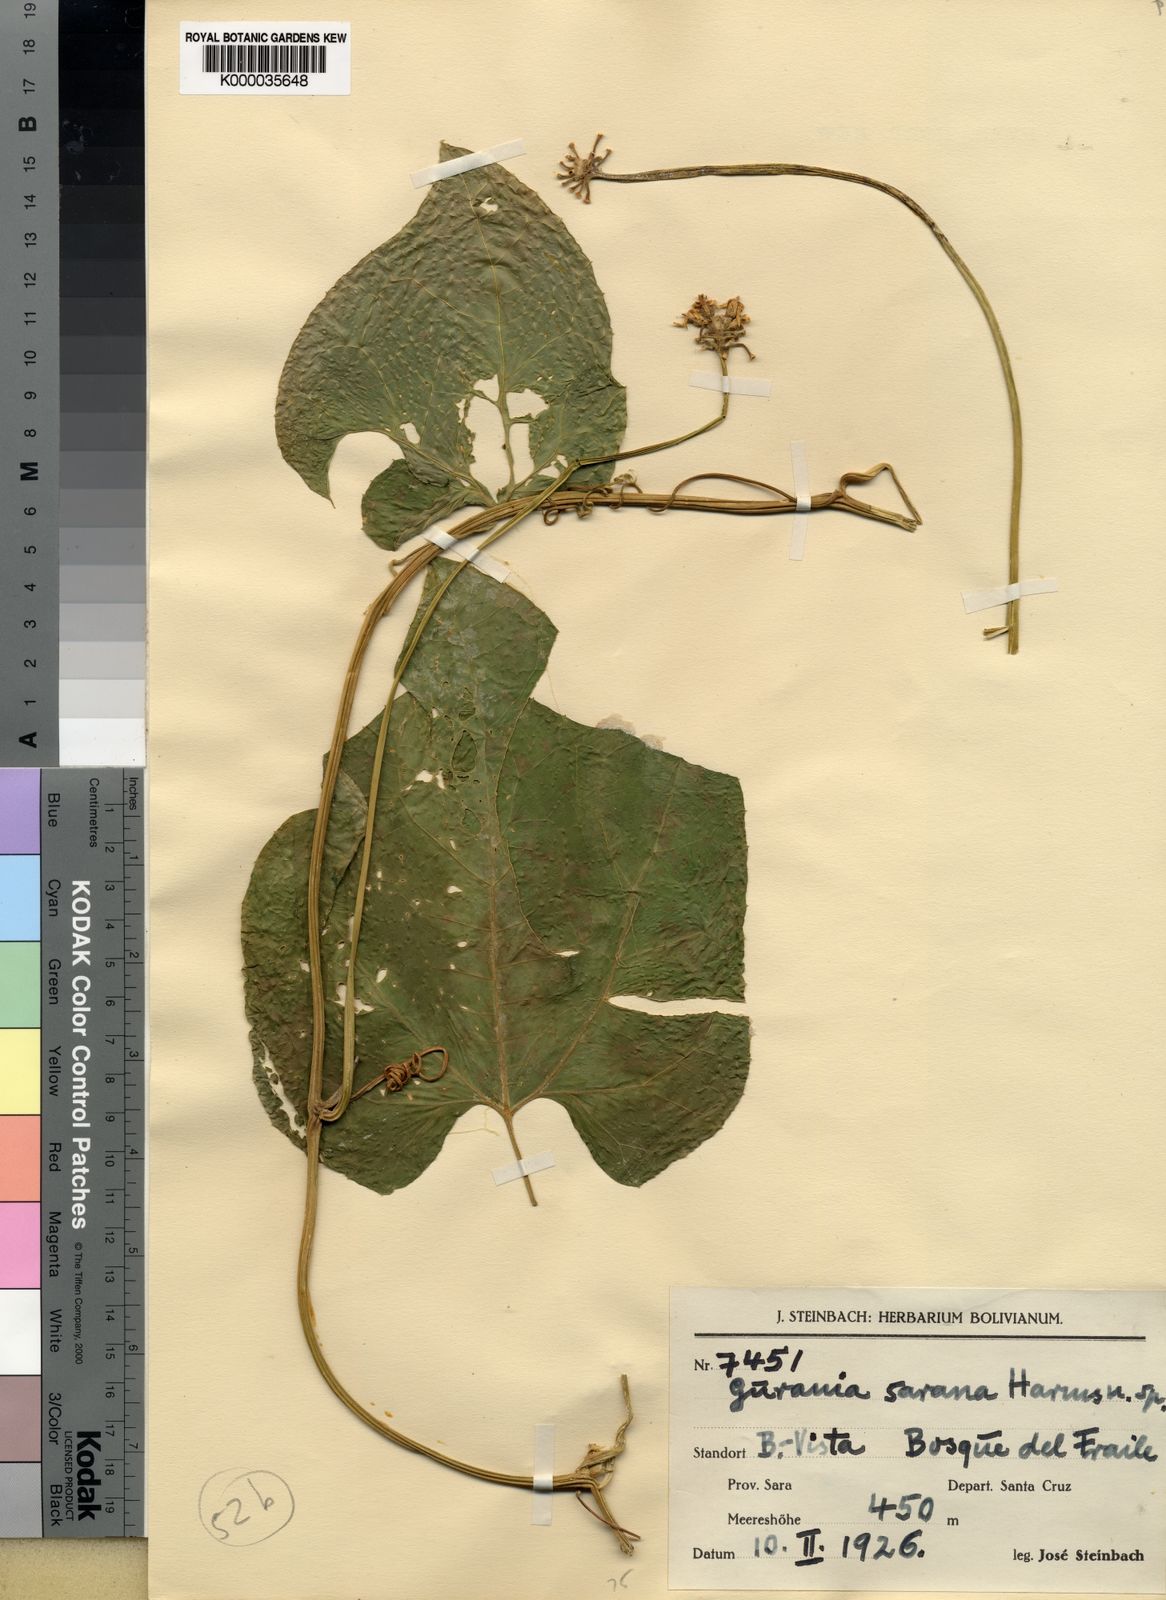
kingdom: Plantae
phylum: Tracheophyta
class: Magnoliopsida
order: Cucurbitales
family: Cucurbitaceae
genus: Gurania
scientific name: Gurania acuminata
